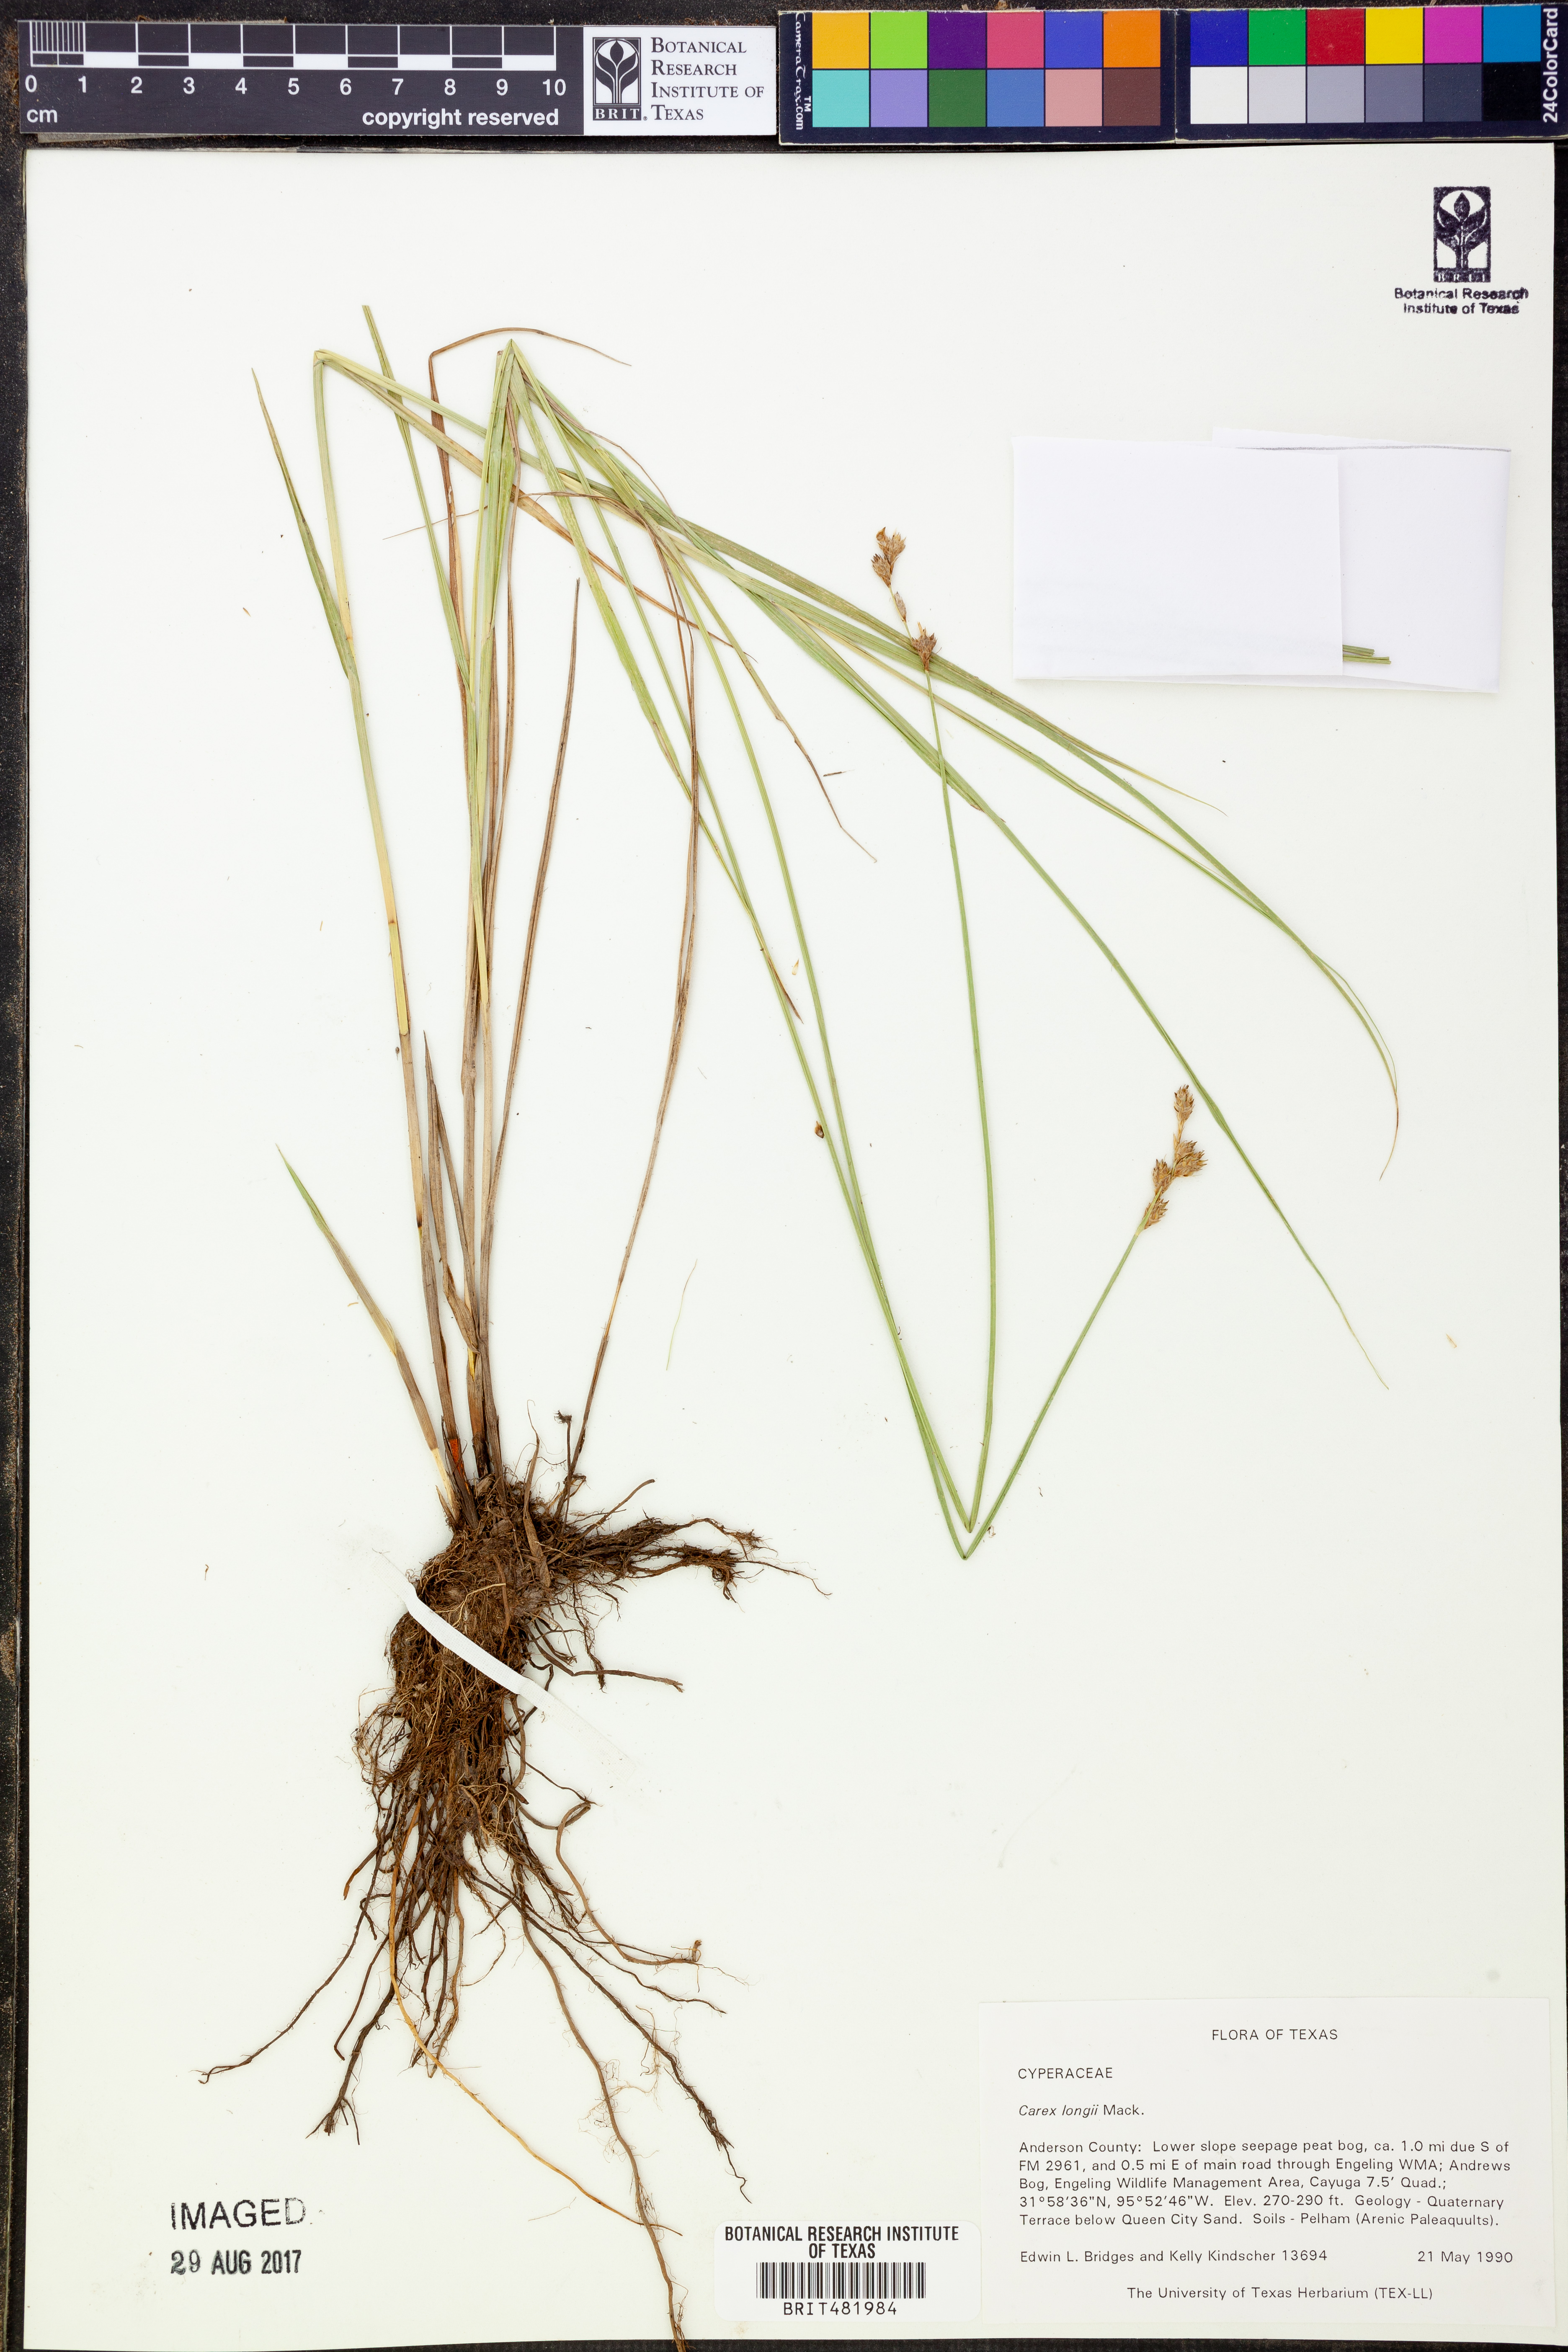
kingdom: Plantae
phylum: Tracheophyta
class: Liliopsida
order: Poales
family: Cyperaceae
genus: Carex
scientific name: Carex longii
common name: Long's sedge
